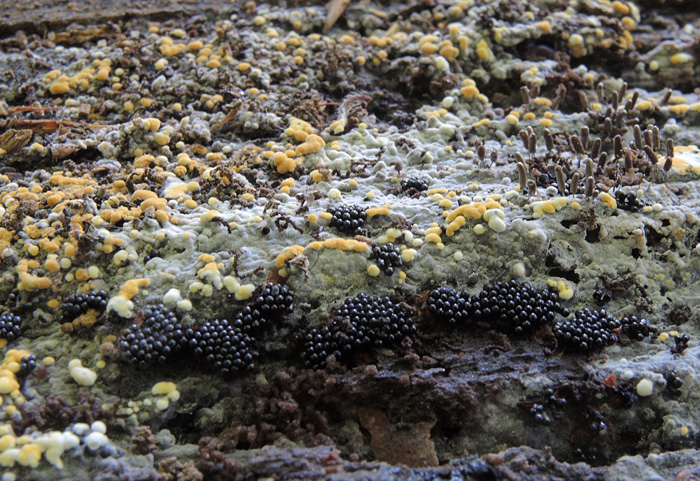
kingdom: Fungi
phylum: Basidiomycota
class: Agaricomycetes
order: Cantharellales
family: Botryobasidiaceae
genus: Botryobasidium
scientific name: Botryobasidium aureum
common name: gylden spindhinde
